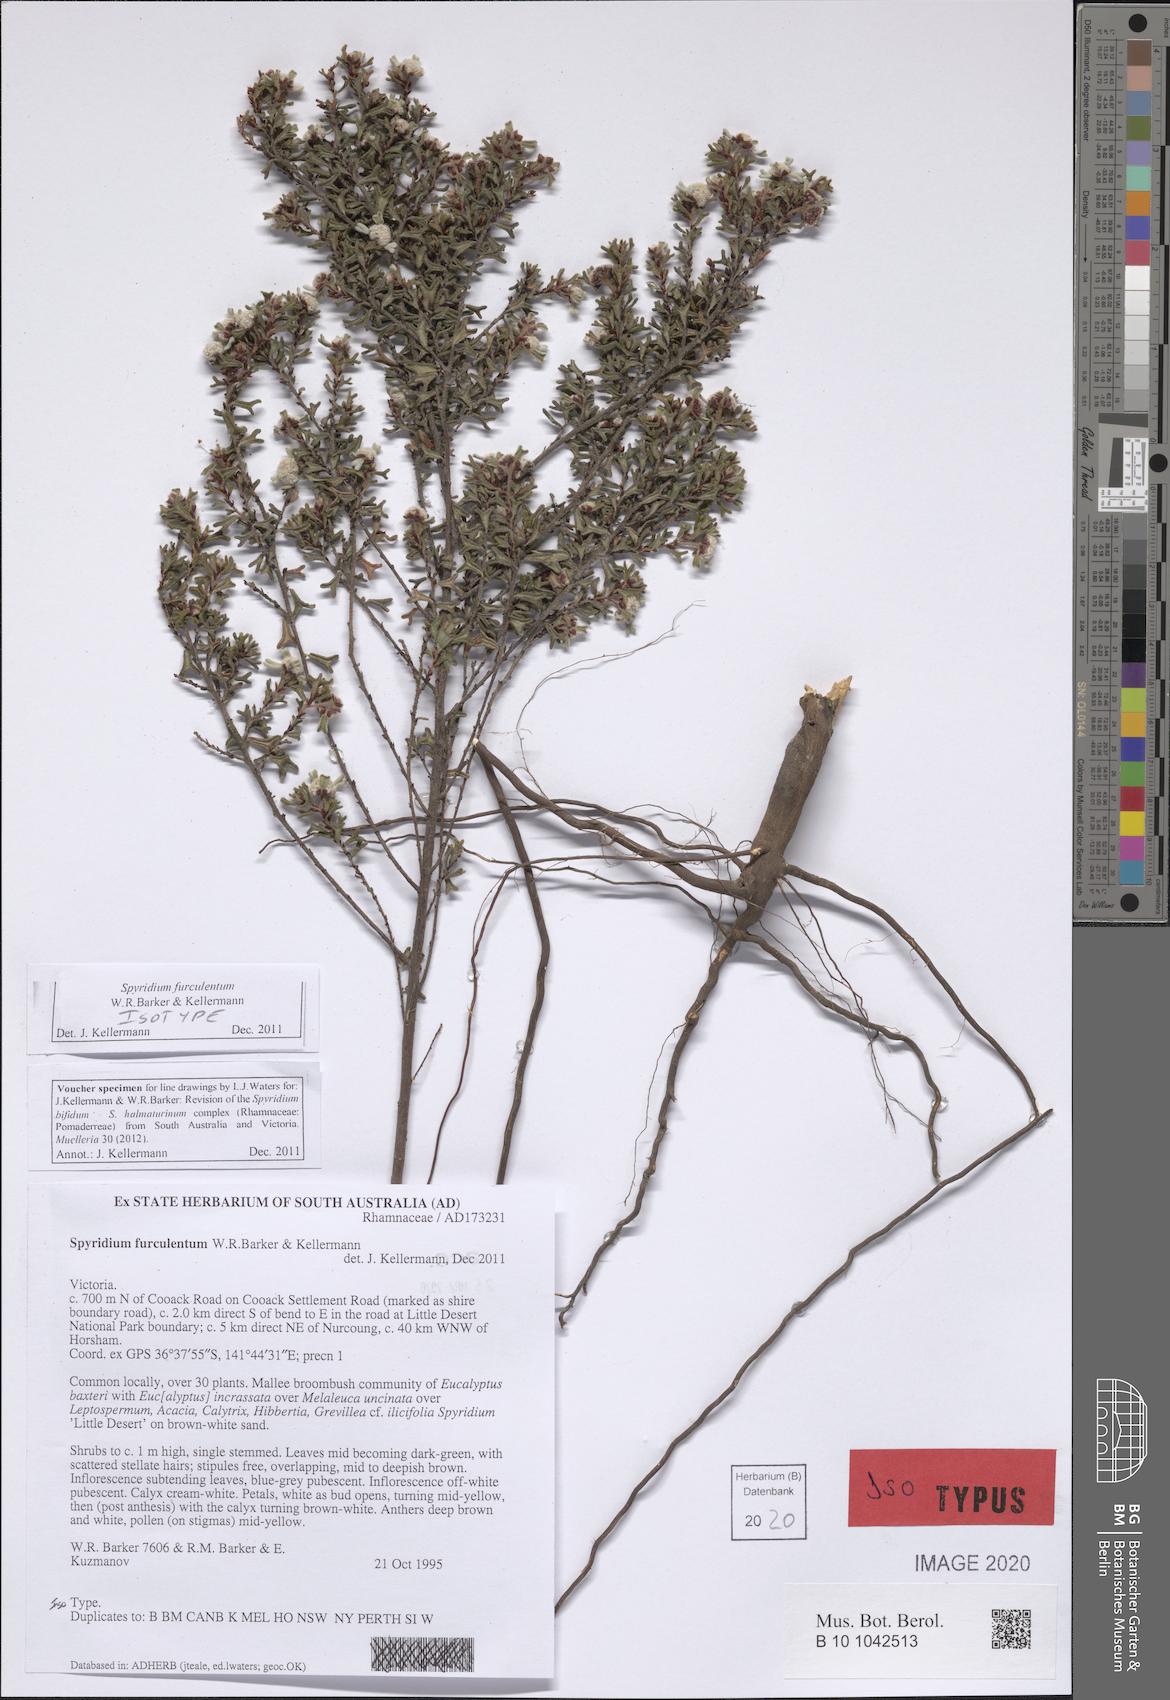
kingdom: Plantae
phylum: Tracheophyta
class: Magnoliopsida
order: Rosales
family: Rhamnaceae
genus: Spyridium
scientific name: Spyridium furculentum
